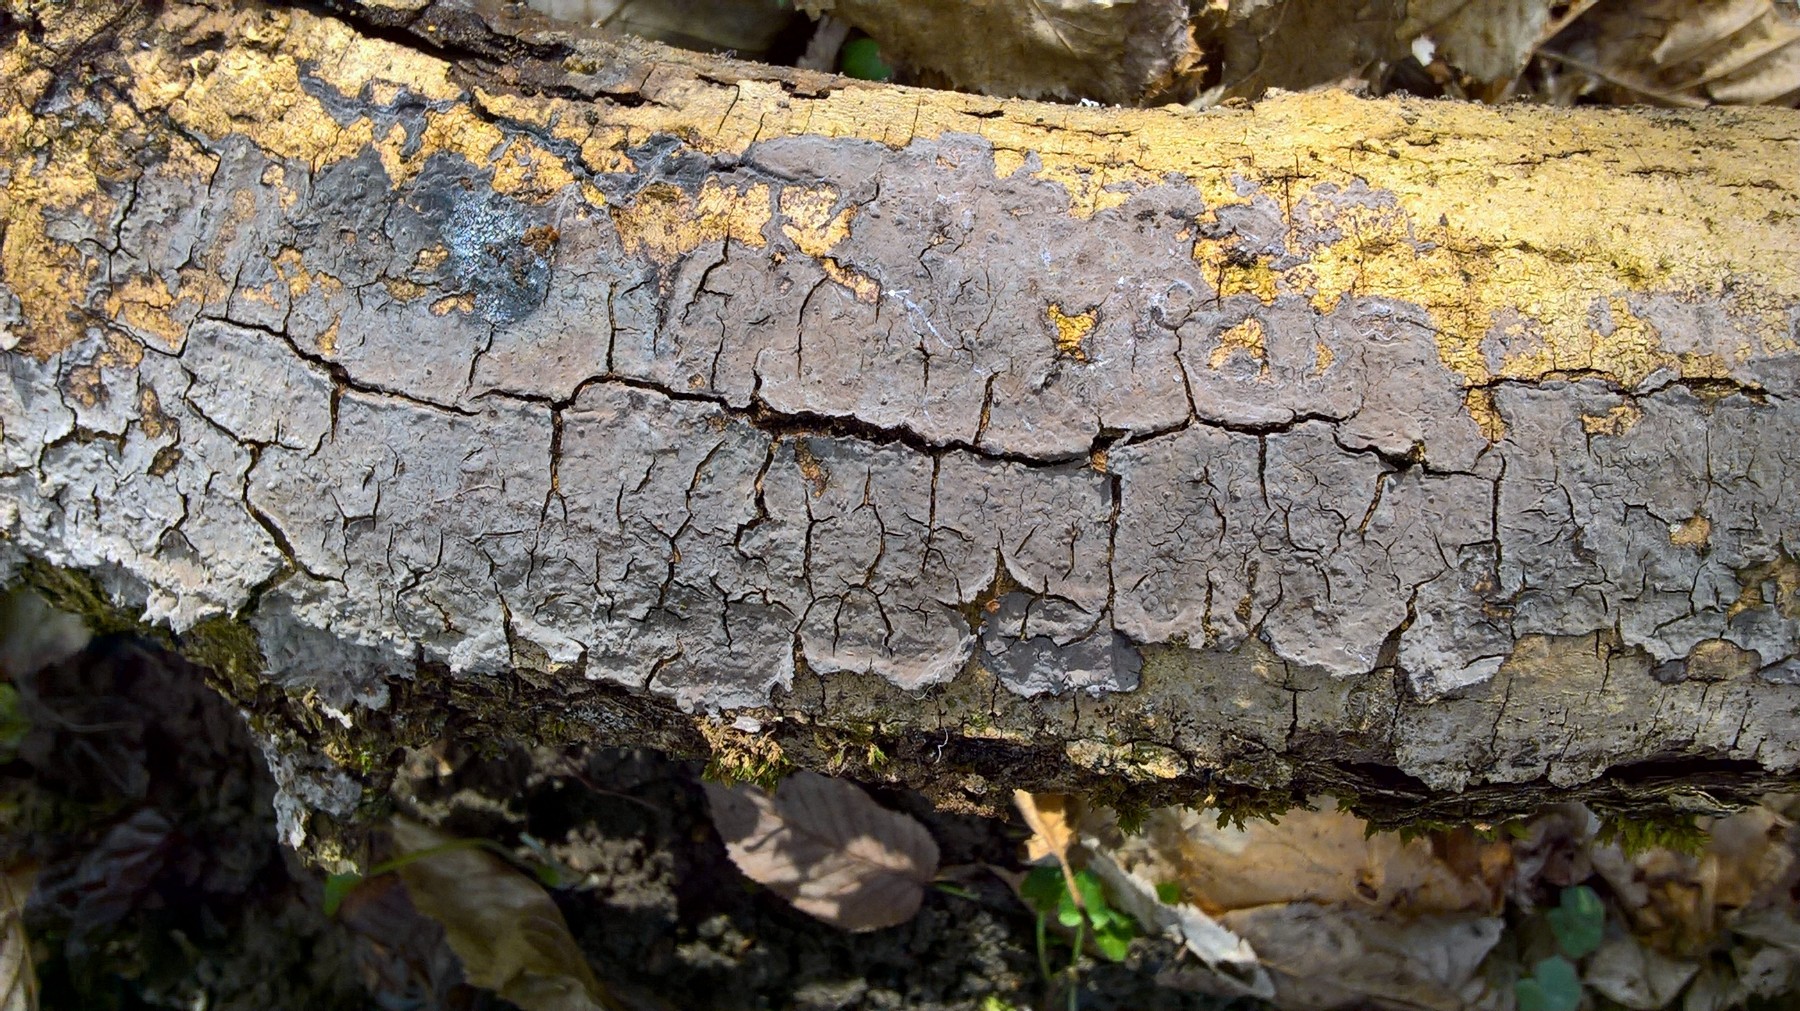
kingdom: Fungi
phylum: Basidiomycota
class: Agaricomycetes
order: Russulales
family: Peniophoraceae
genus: Peniophora
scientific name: Peniophora limitata
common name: mørkrandet voksskind
